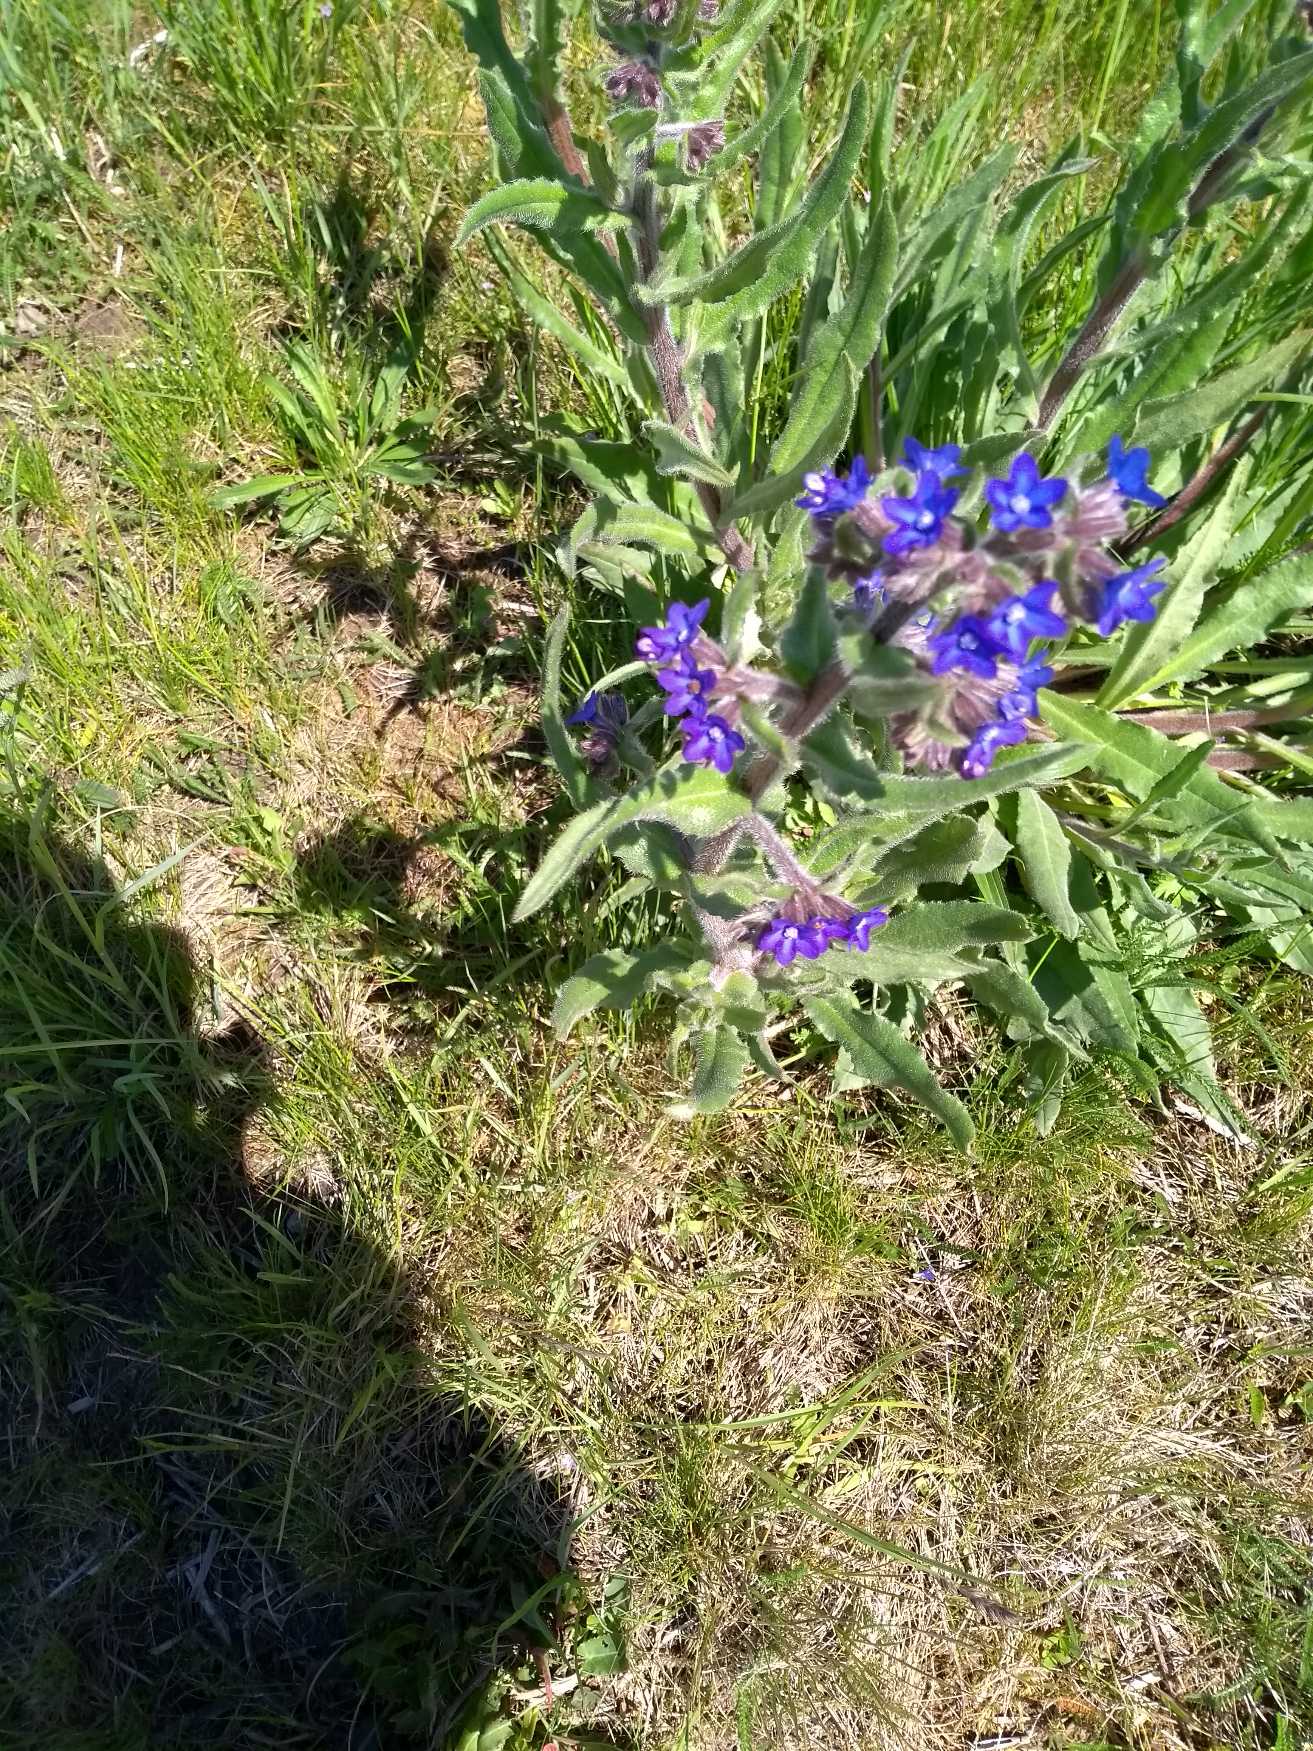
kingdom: Plantae
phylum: Tracheophyta
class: Magnoliopsida
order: Boraginales
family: Boraginaceae
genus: Anchusa
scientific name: Anchusa officinalis
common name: Læge-oksetunge
